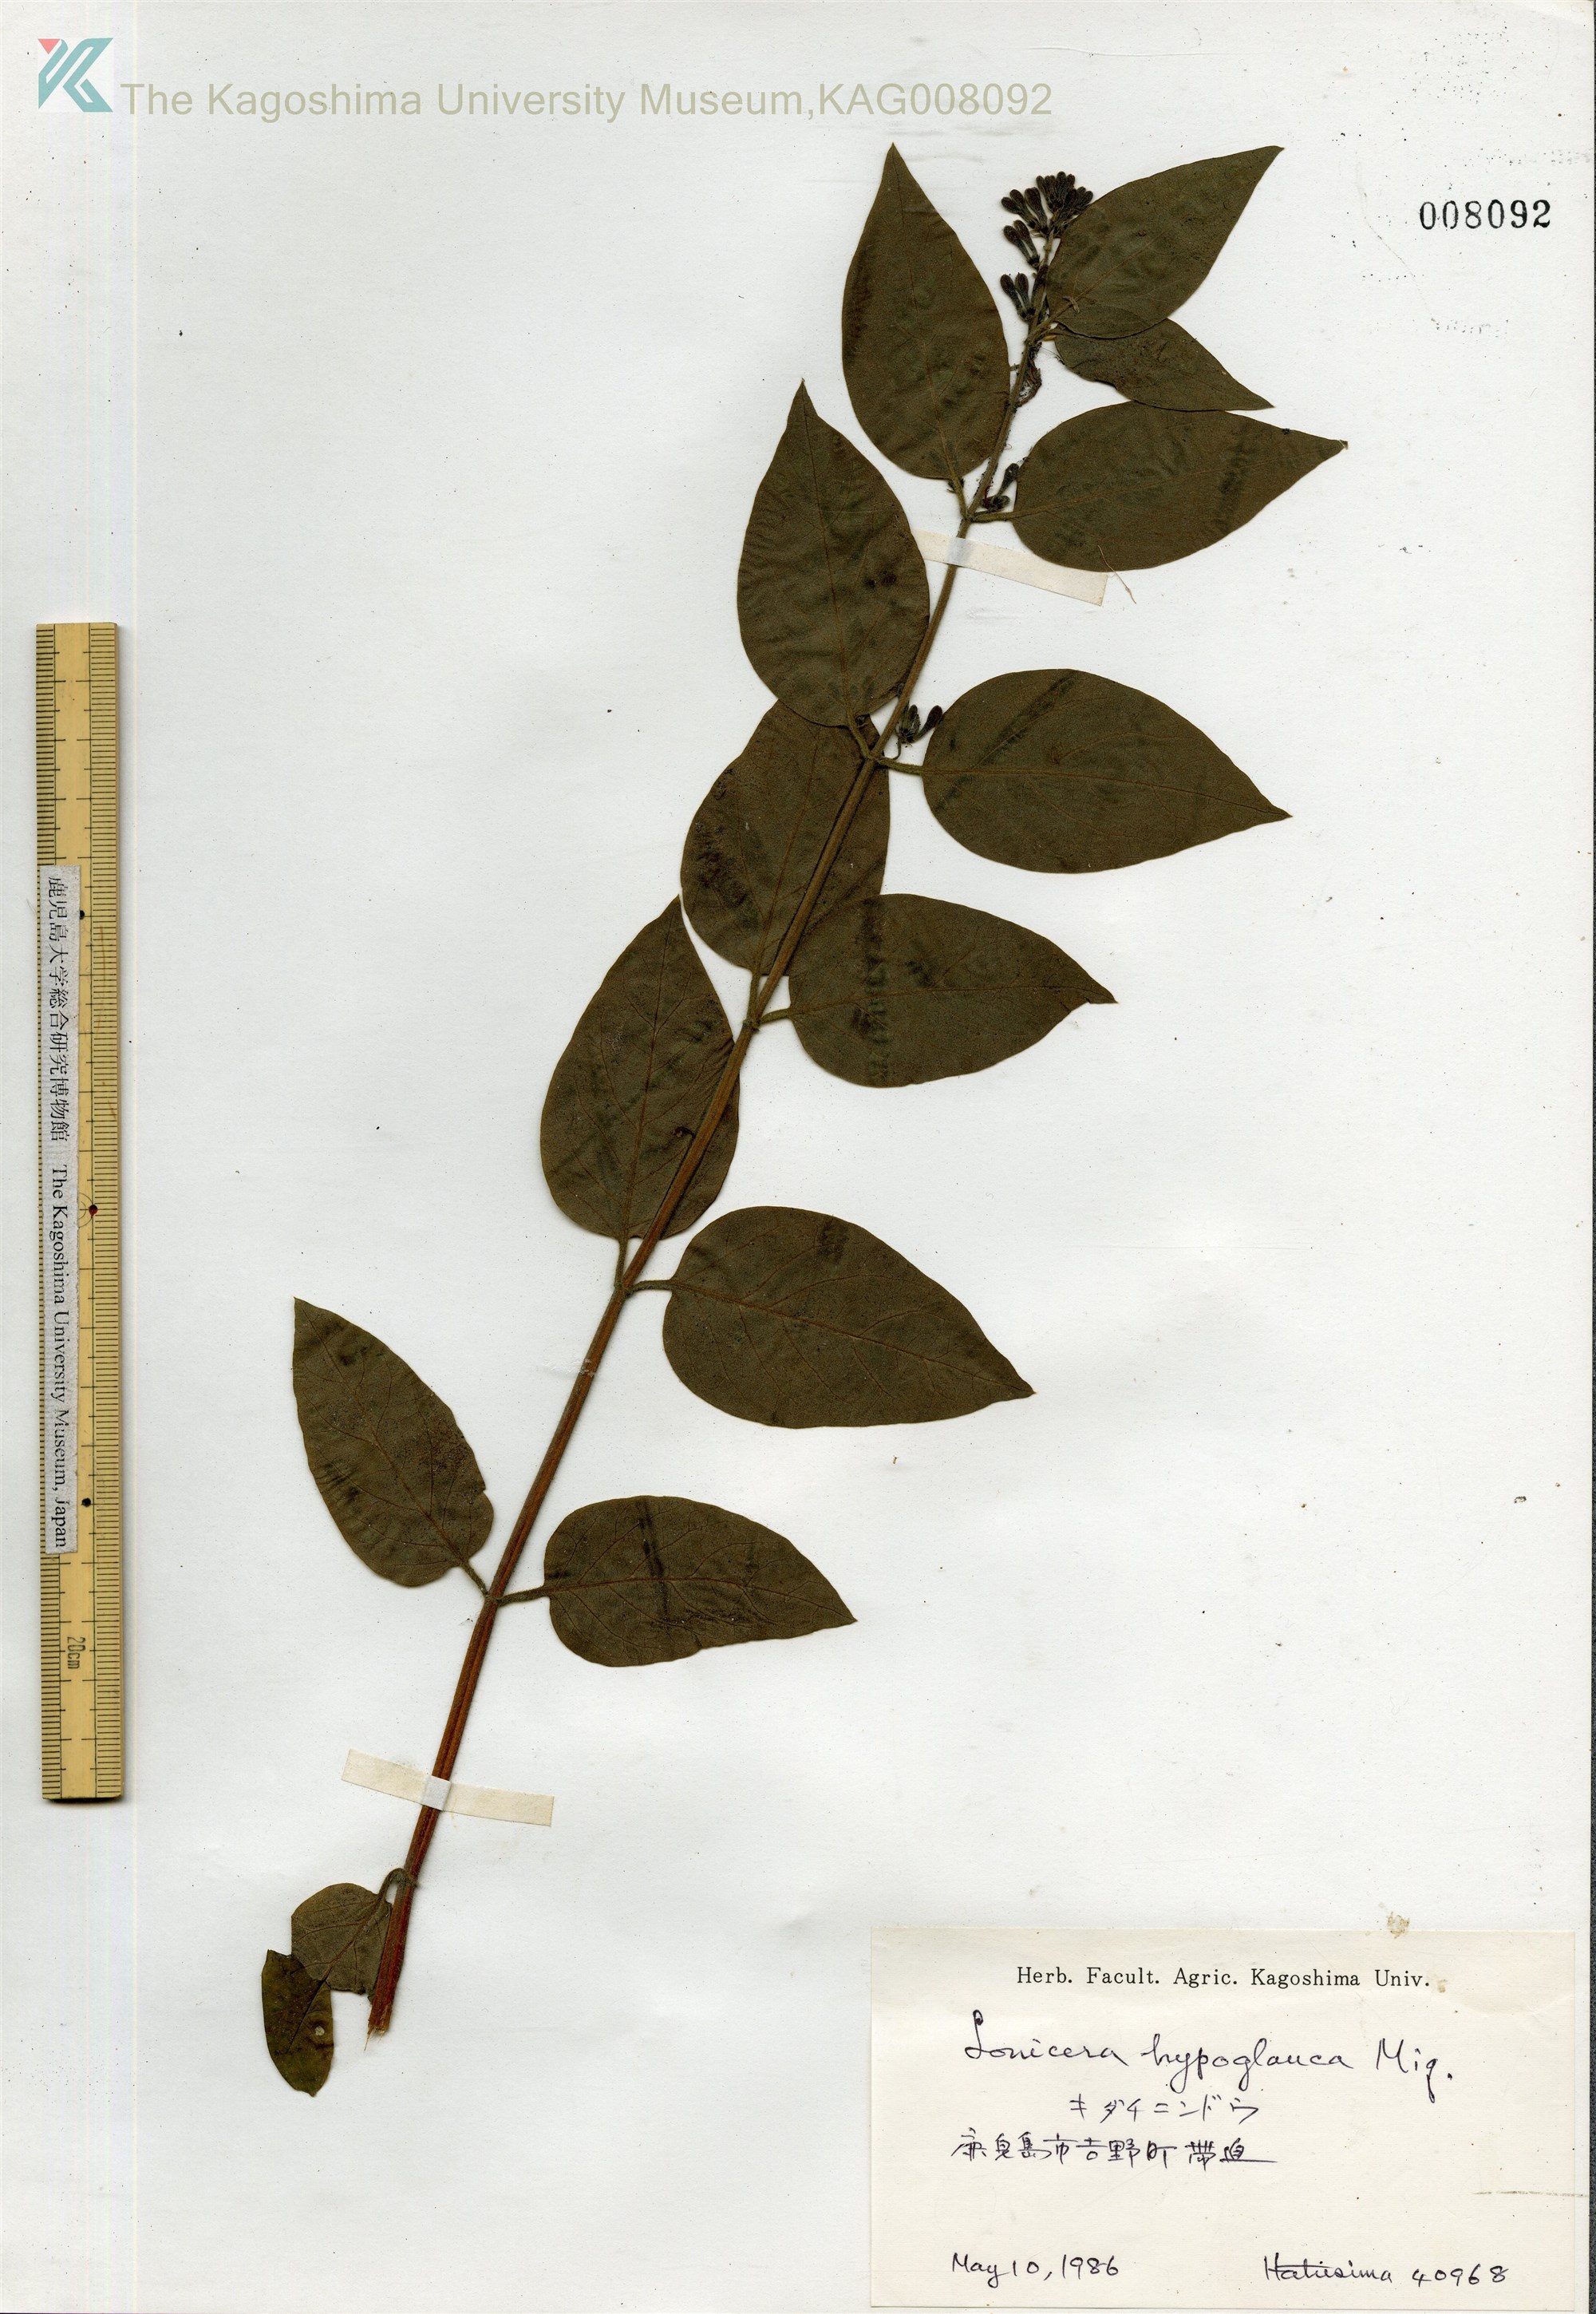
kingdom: Plantae
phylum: Tracheophyta
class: Magnoliopsida
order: Dipsacales
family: Caprifoliaceae
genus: Lonicera
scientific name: Lonicera hypoglauca
